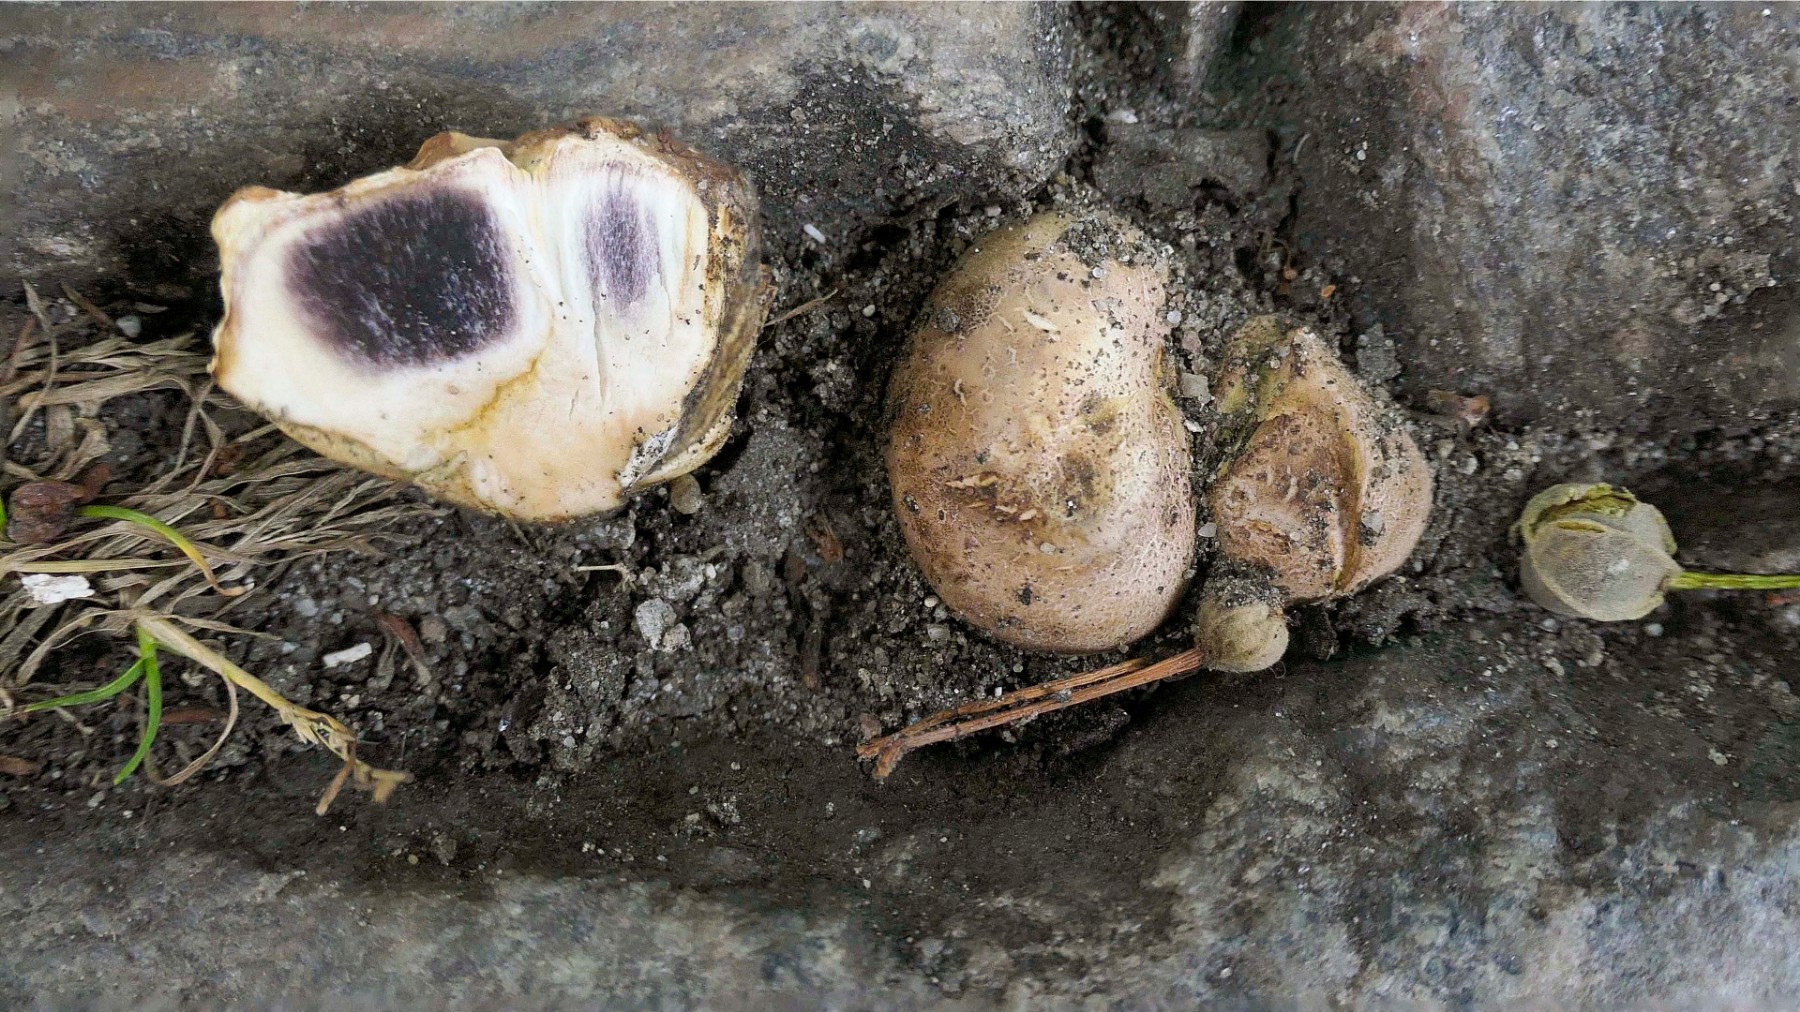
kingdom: Fungi
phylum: Basidiomycota
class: Agaricomycetes
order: Boletales
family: Sclerodermataceae
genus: Scleroderma
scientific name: Scleroderma bovista
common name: bovist-bruskbold
